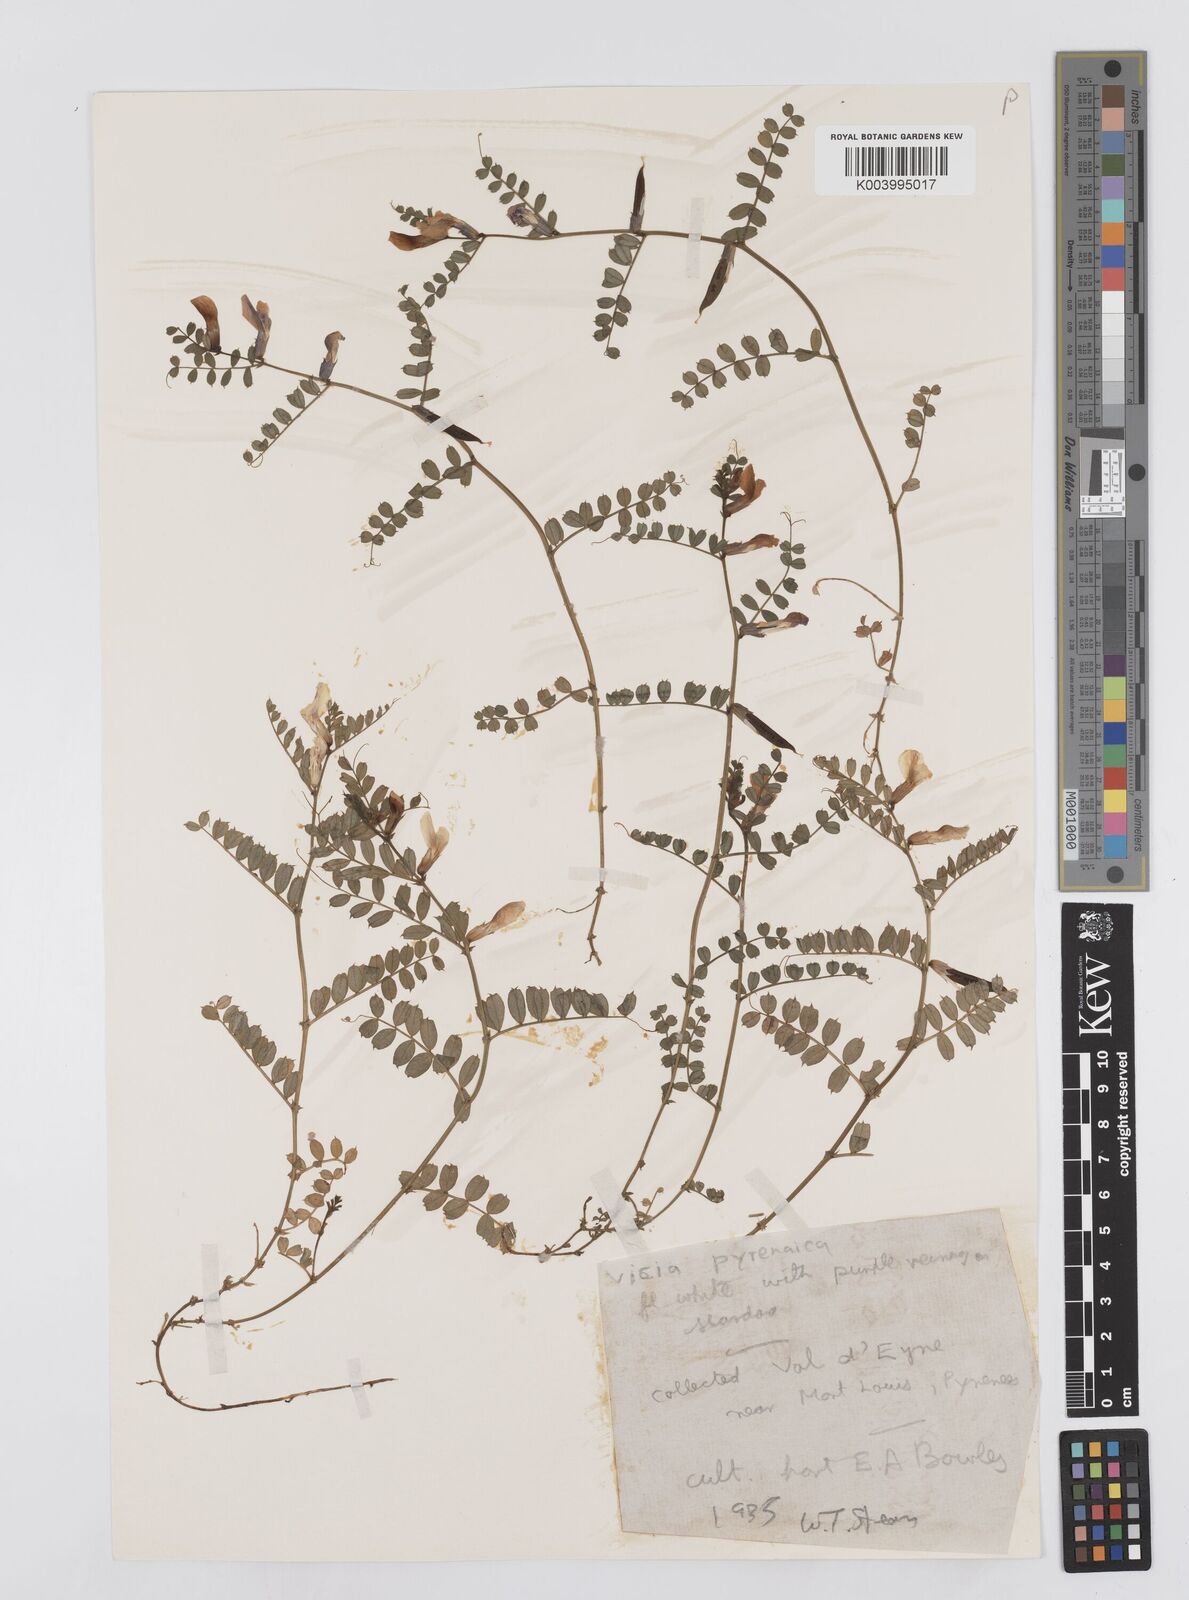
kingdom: Plantae
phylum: Tracheophyta
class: Magnoliopsida
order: Fabales
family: Fabaceae
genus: Vicia
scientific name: Vicia pyrenaica
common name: Pyrenean vetch
